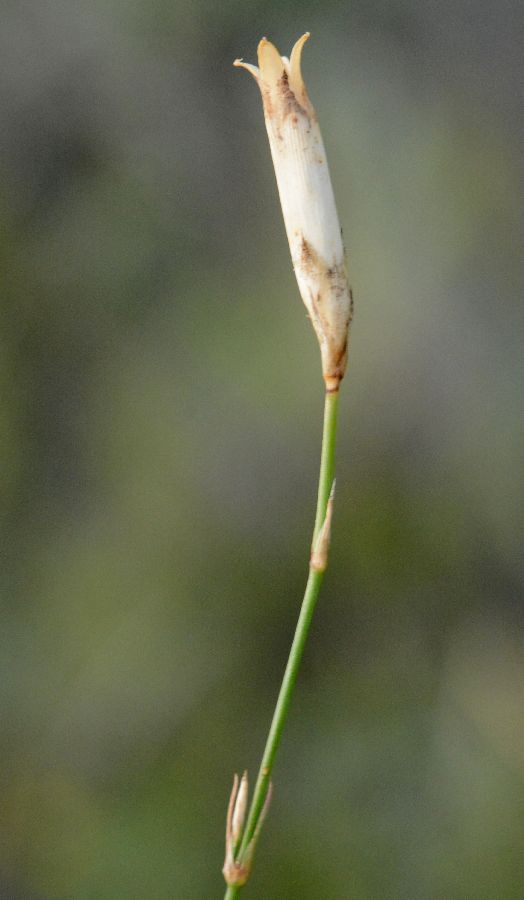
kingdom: Plantae
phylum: Tracheophyta
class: Magnoliopsida
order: Caryophyllales
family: Caryophyllaceae
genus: Dianthus
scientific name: Dianthus campestris
